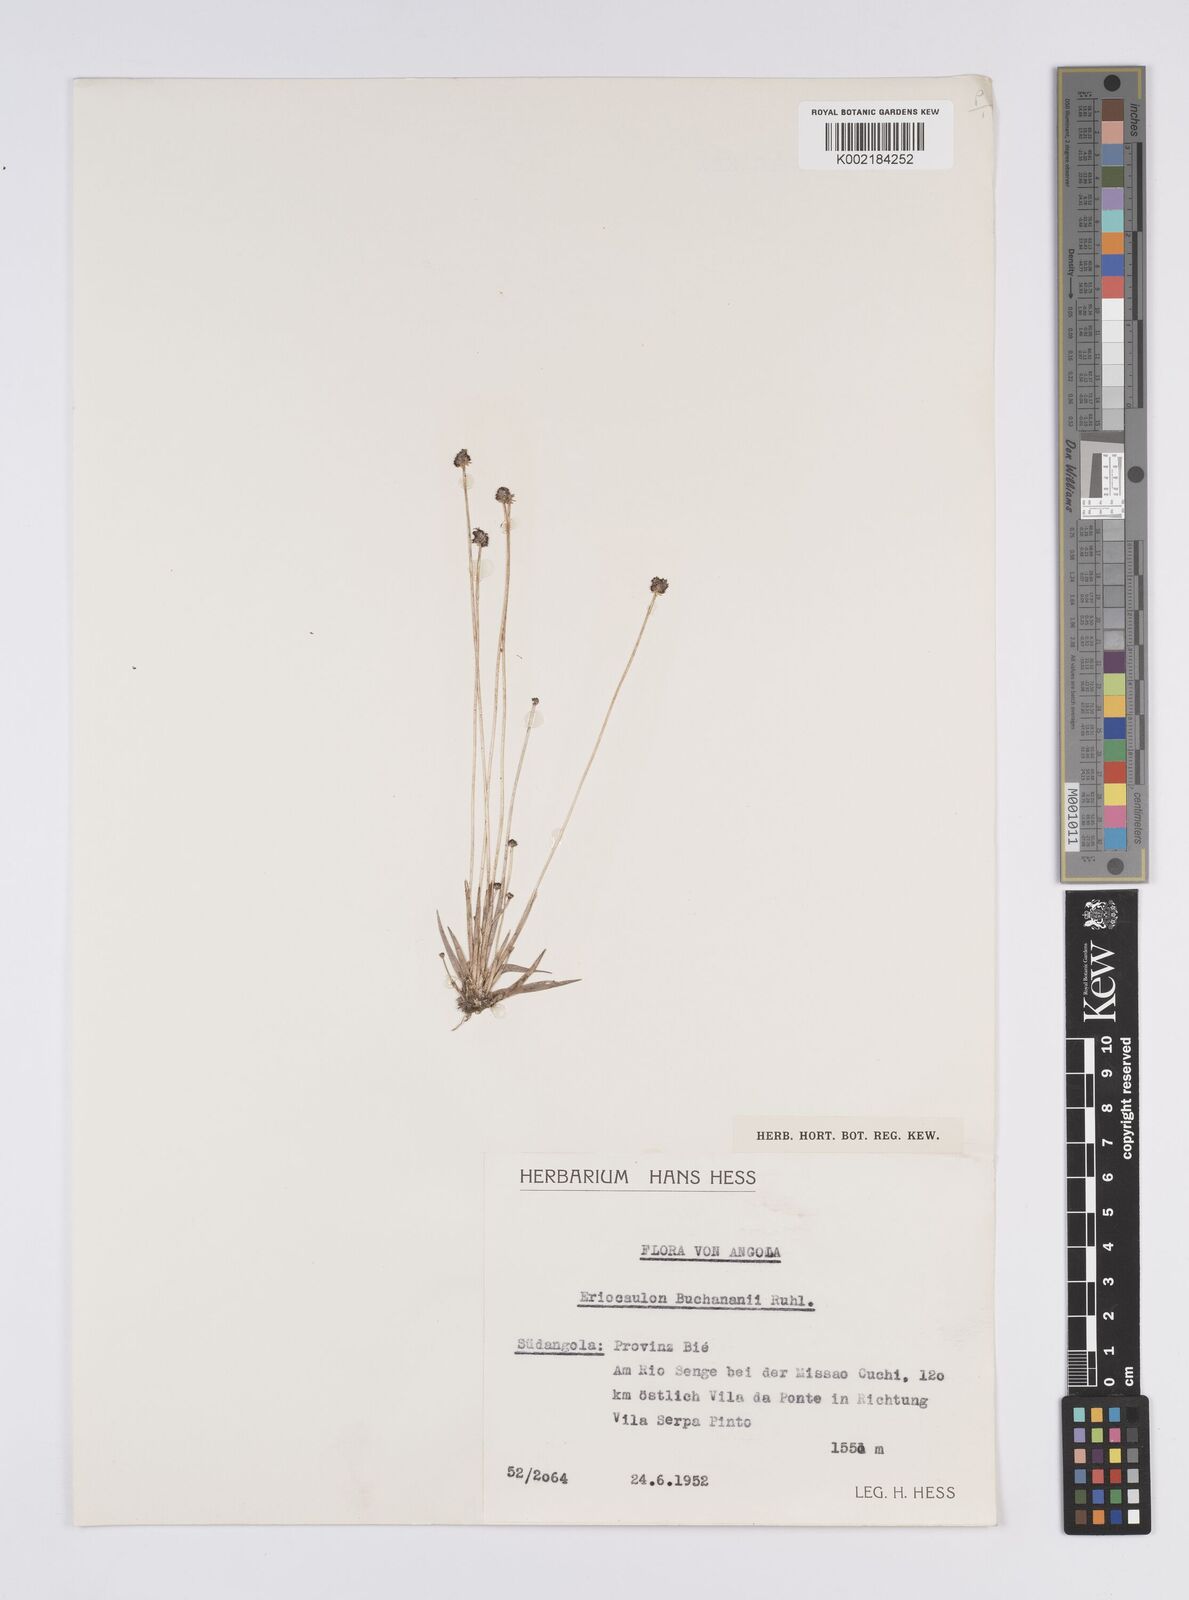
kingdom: Plantae
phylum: Tracheophyta
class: Liliopsida
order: Poales
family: Eriocaulaceae
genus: Eriocaulon
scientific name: Eriocaulon buchananii
